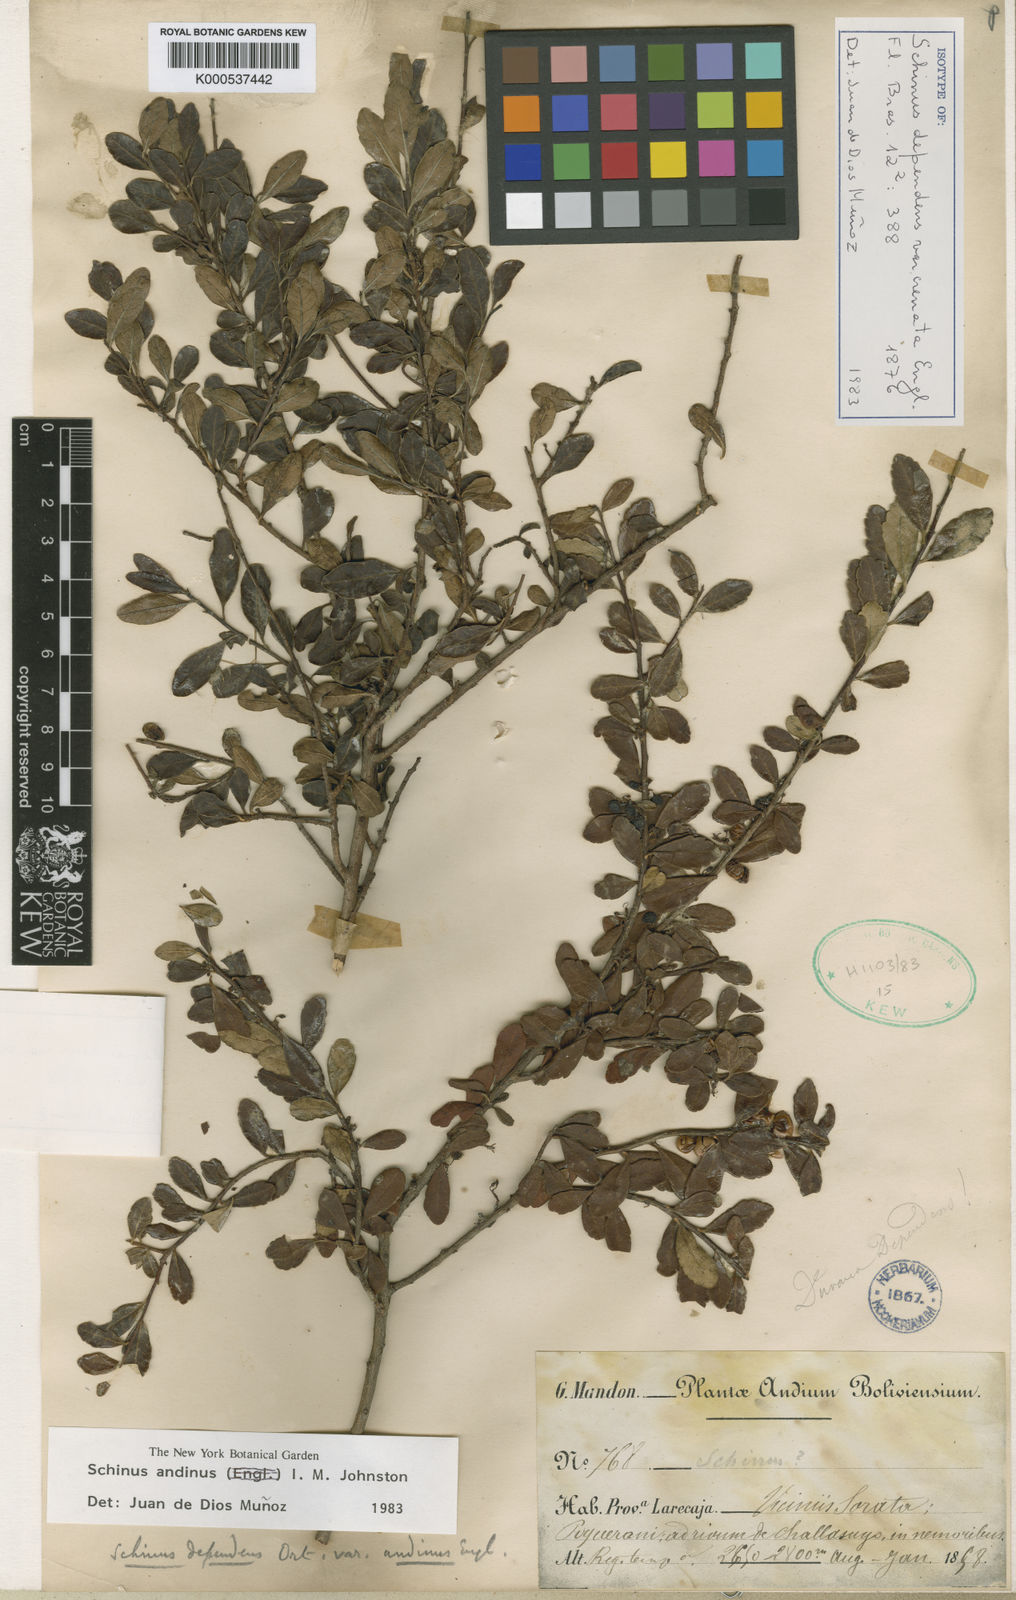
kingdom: Plantae
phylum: Tracheophyta
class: Magnoliopsida
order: Sapindales
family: Anacardiaceae
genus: Schinus
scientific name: Schinus microphylla
